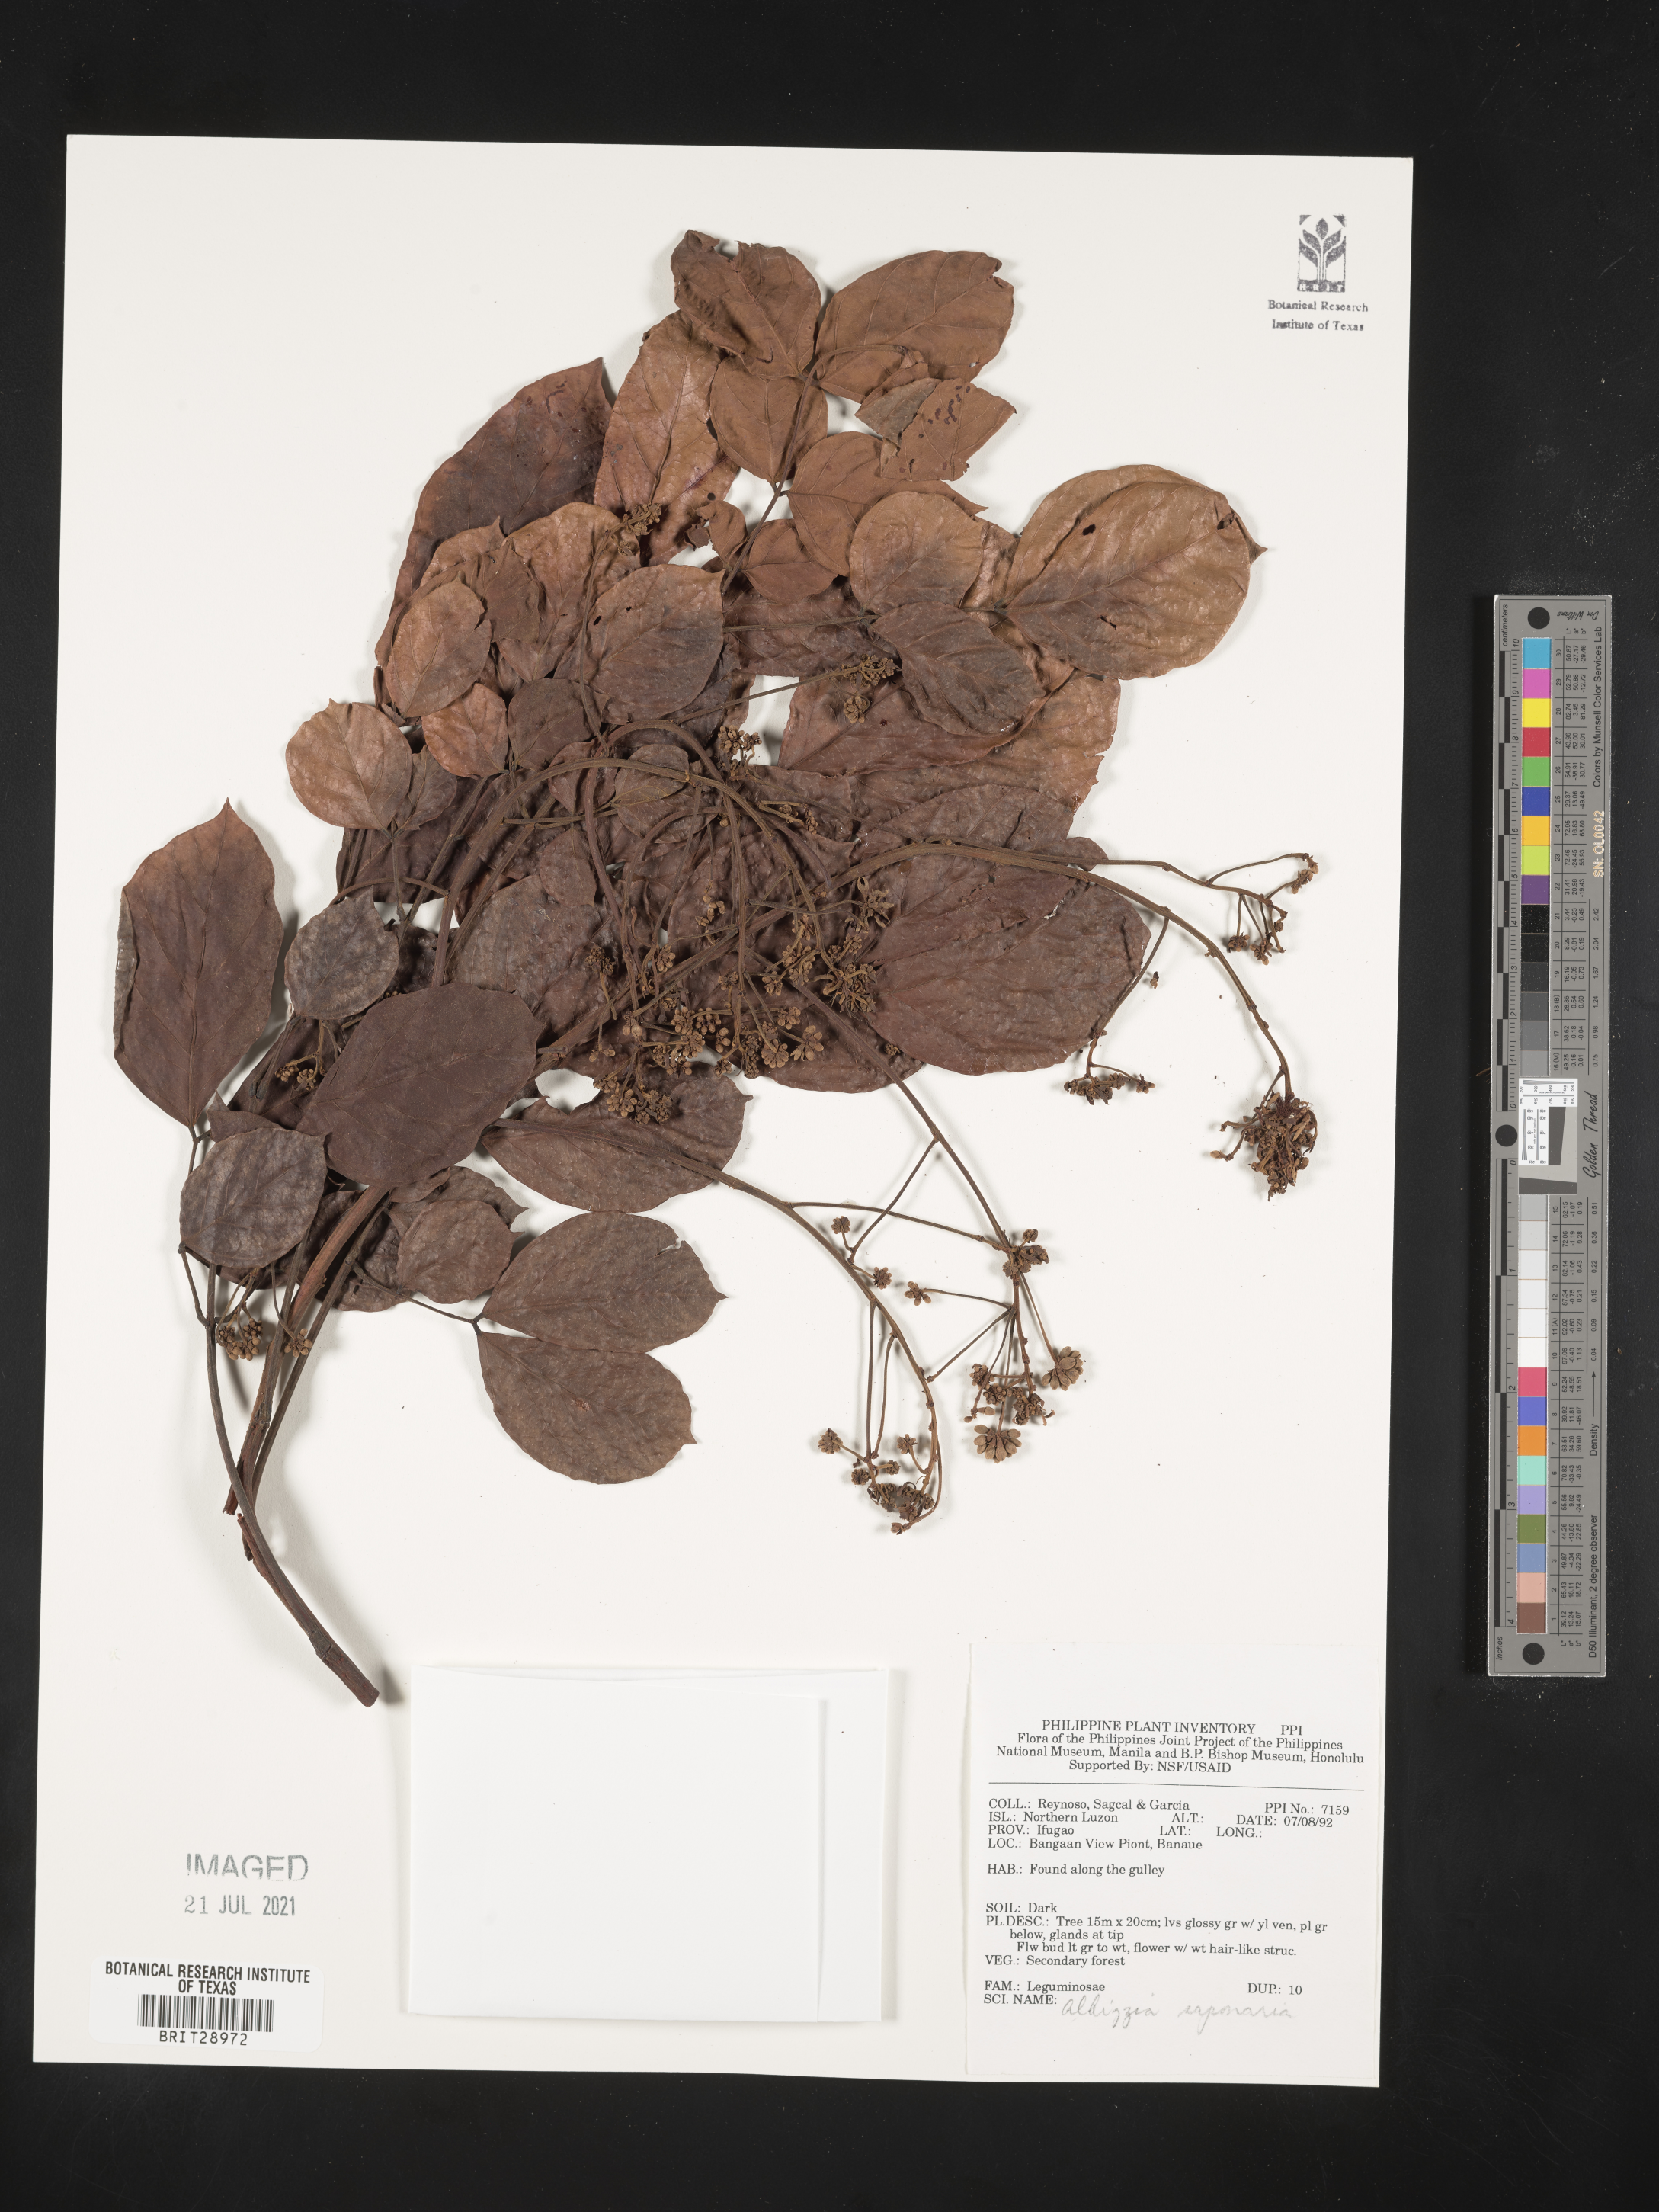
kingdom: Plantae
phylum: Tracheophyta
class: Magnoliopsida
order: Fabales
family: Fabaceae
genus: Albizia
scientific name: Albizia saponaria
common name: Whiteflower albizia
